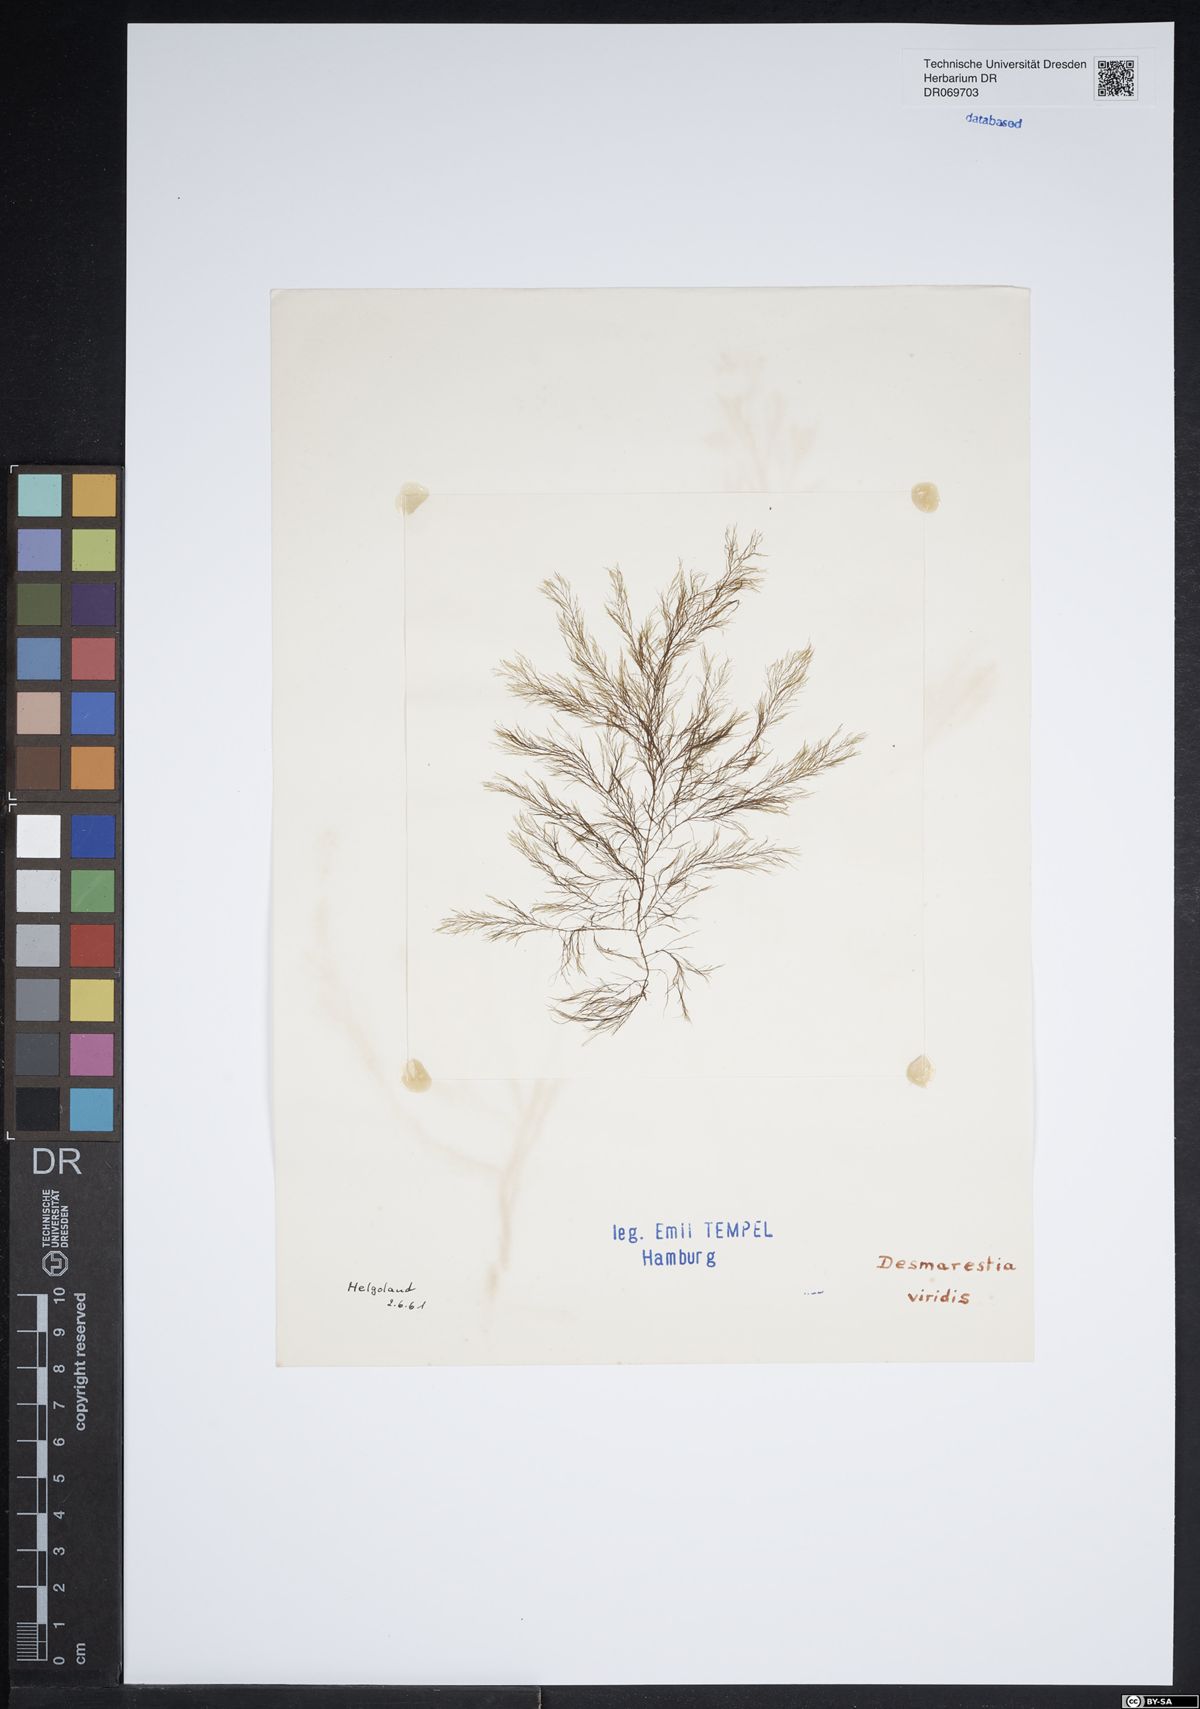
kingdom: Chromista
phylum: Ochrophyta
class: Phaeophyceae
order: Desmarestiales
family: Desmarestiaceae
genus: Desmarestia
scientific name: Desmarestia viridis
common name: Stringy acid kelp
